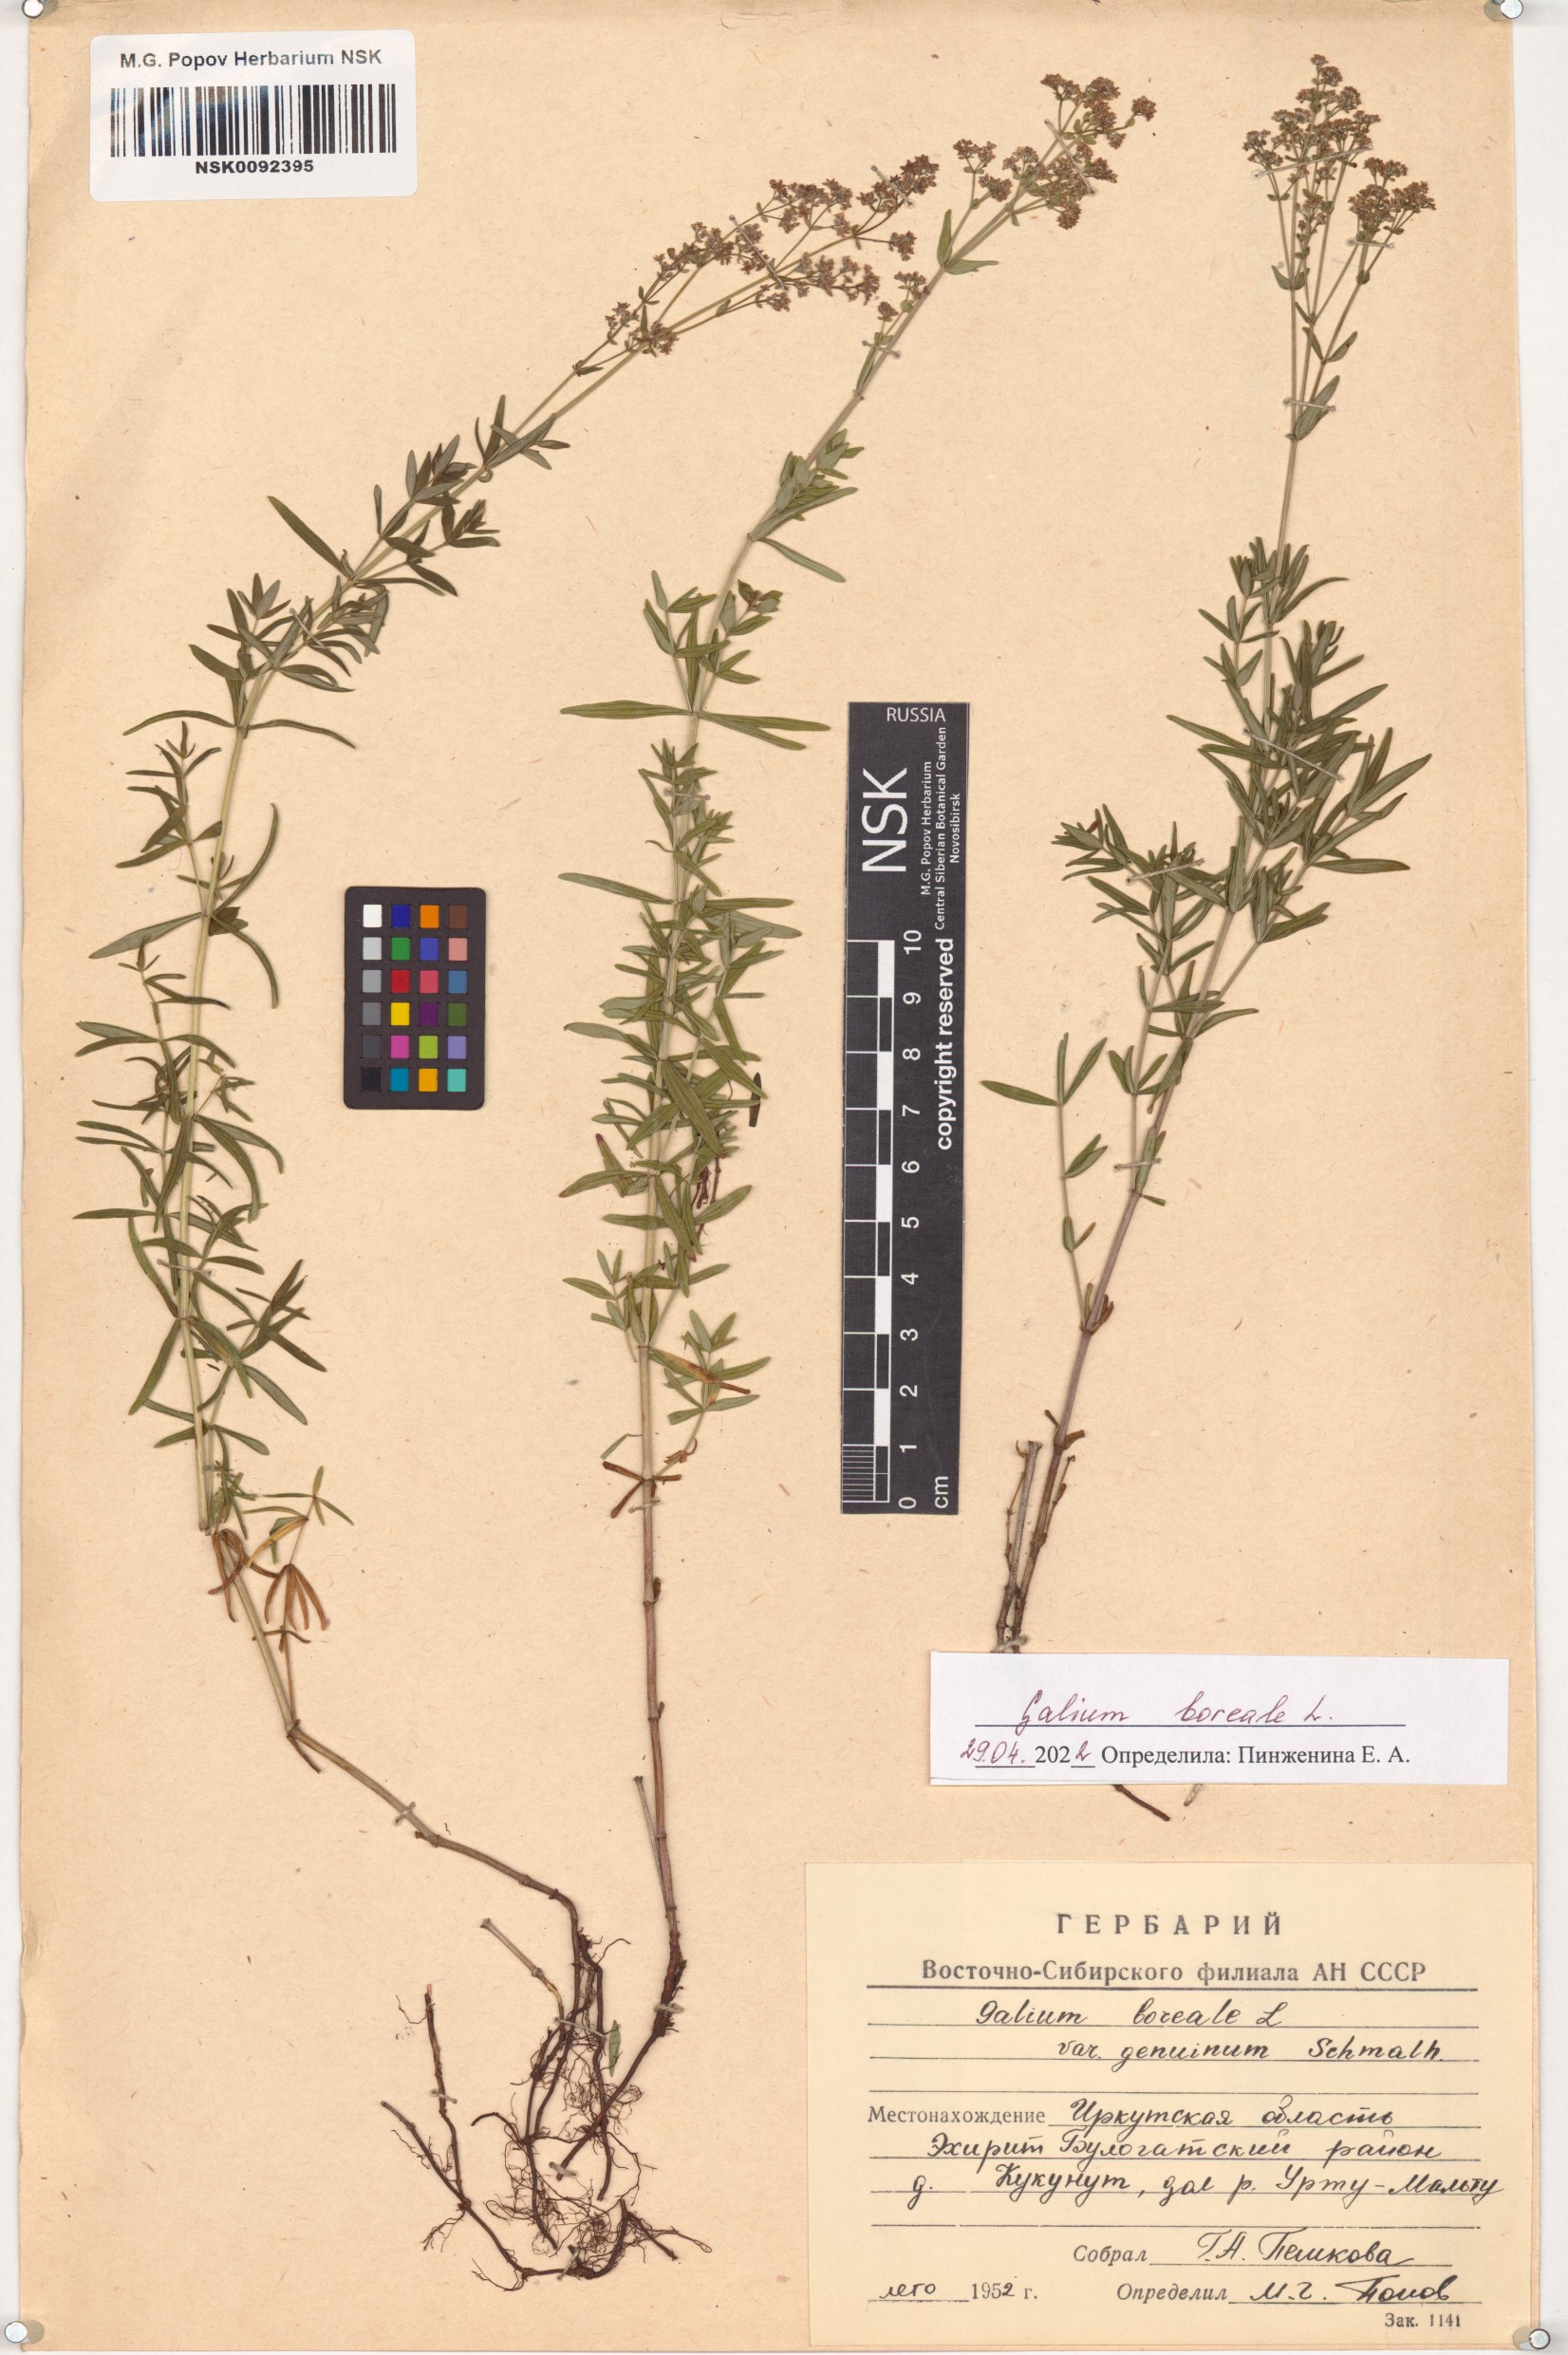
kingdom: Plantae
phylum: Tracheophyta
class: Magnoliopsida
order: Gentianales
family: Rubiaceae
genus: Galium
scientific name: Galium boreale
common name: Northern bedstraw
